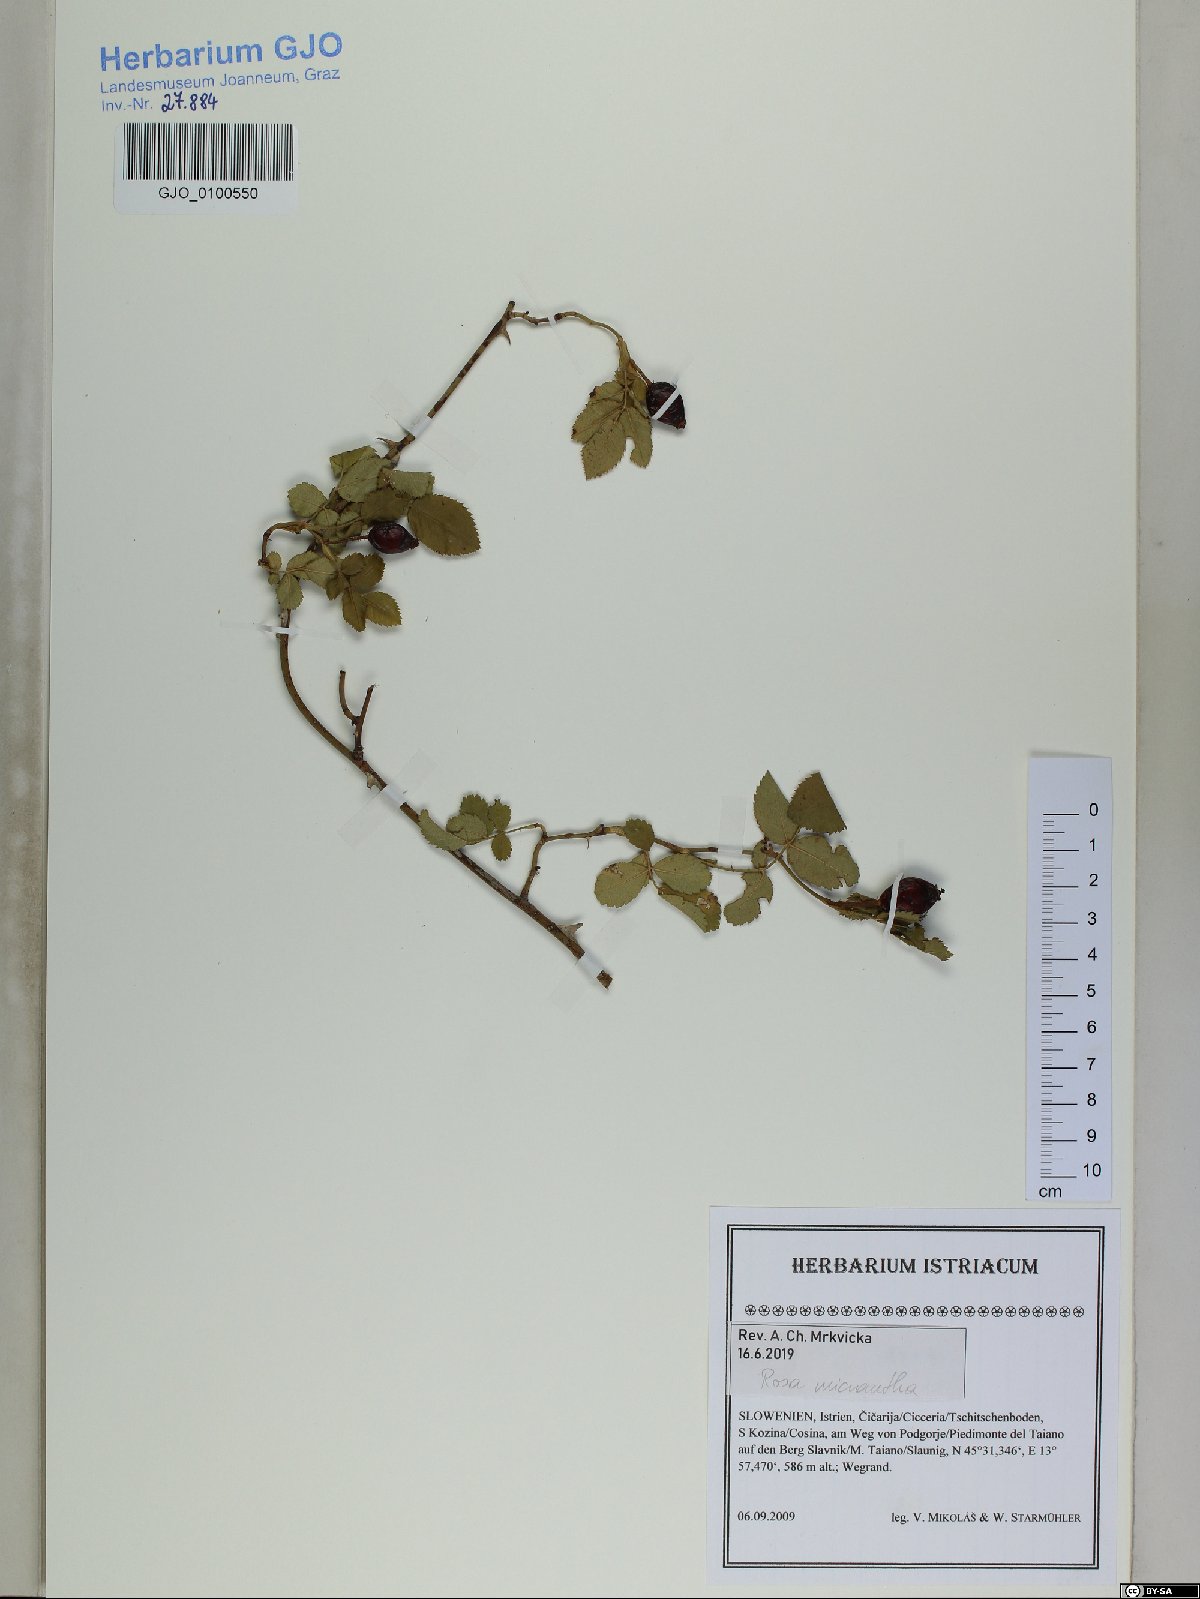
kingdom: Plantae
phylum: Tracheophyta
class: Magnoliopsida
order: Rosales
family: Rosaceae
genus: Rosa
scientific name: Rosa micrantha
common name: Small-flowered sweet-briar
